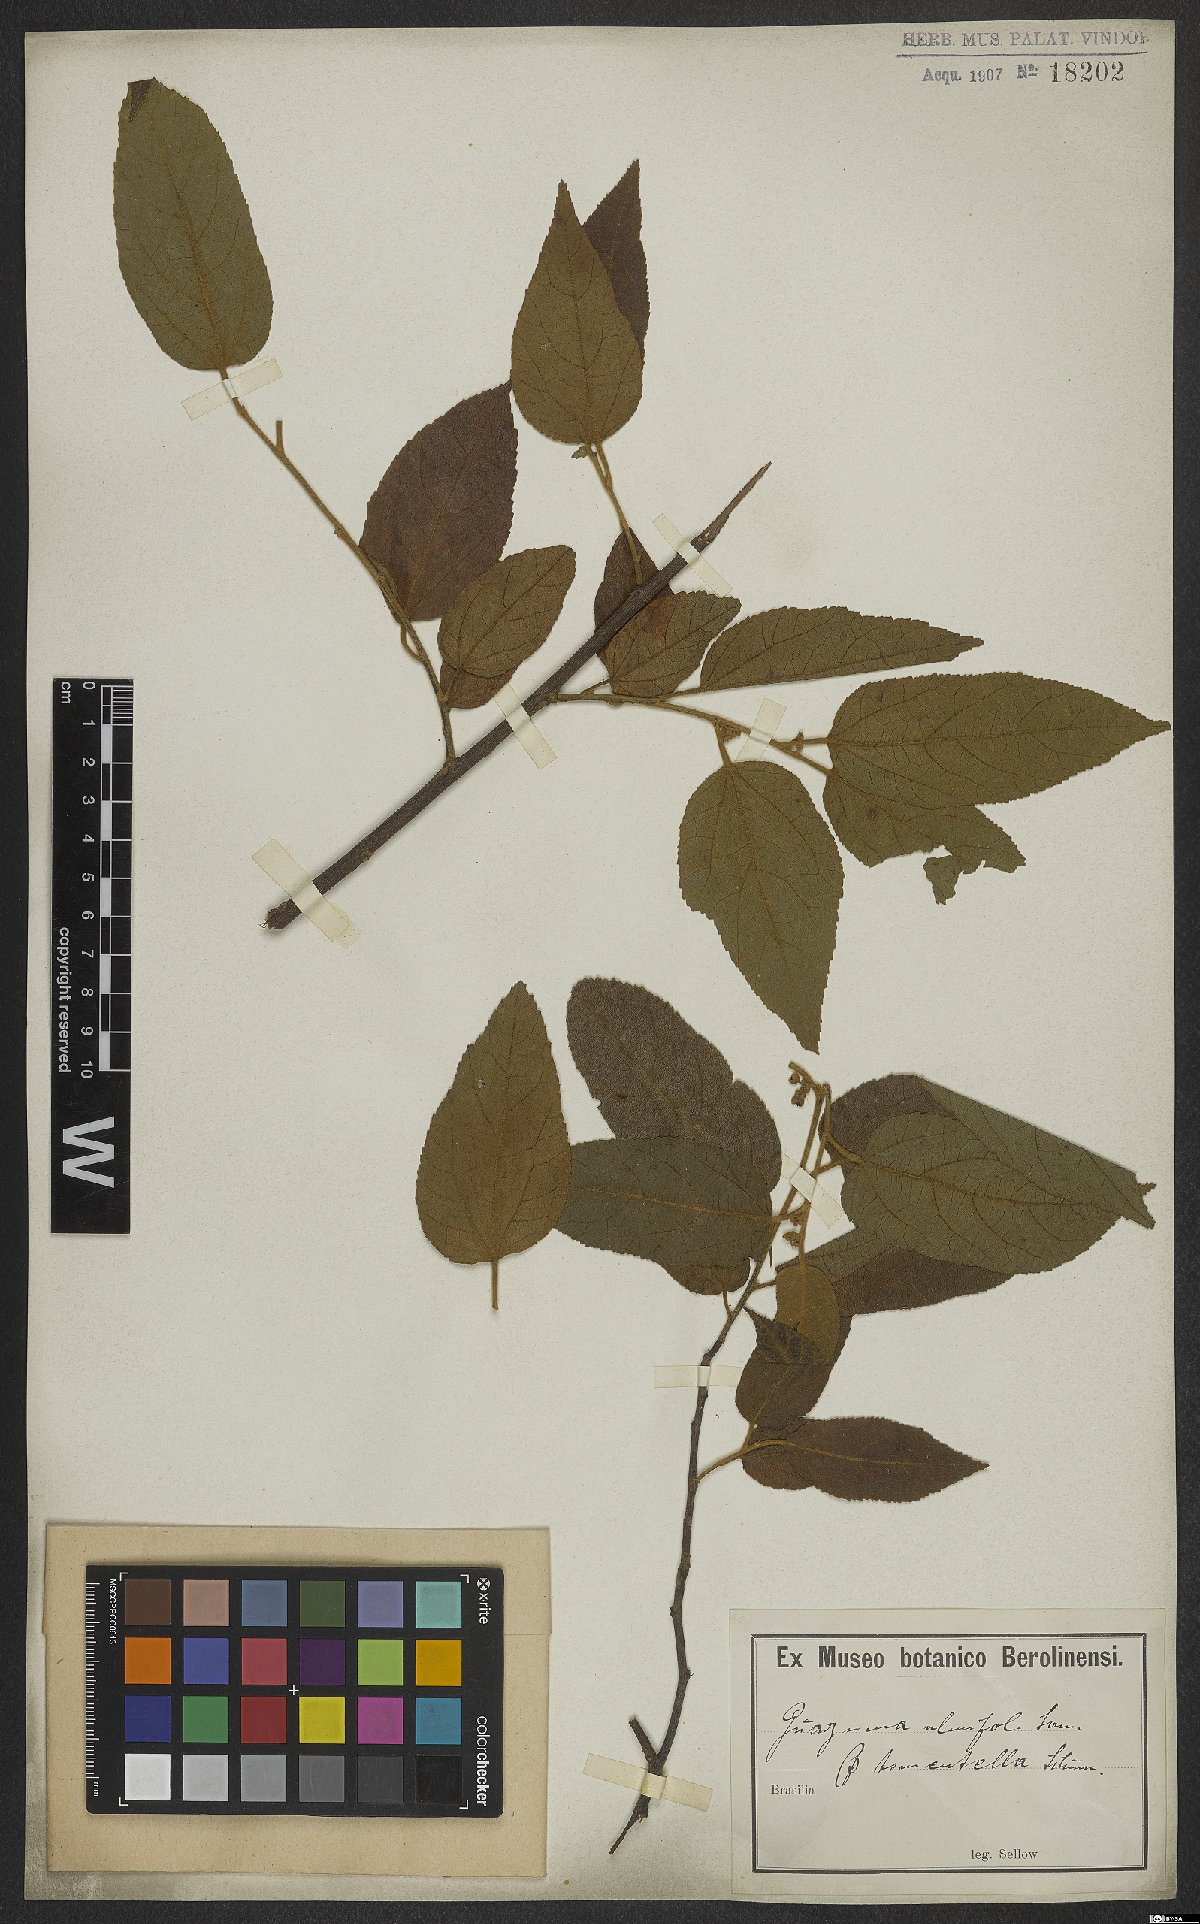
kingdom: Plantae
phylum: Tracheophyta
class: Magnoliopsida
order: Malvales
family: Malvaceae
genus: Guazuma
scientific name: Guazuma ulmifolia
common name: Bastard-cedar
